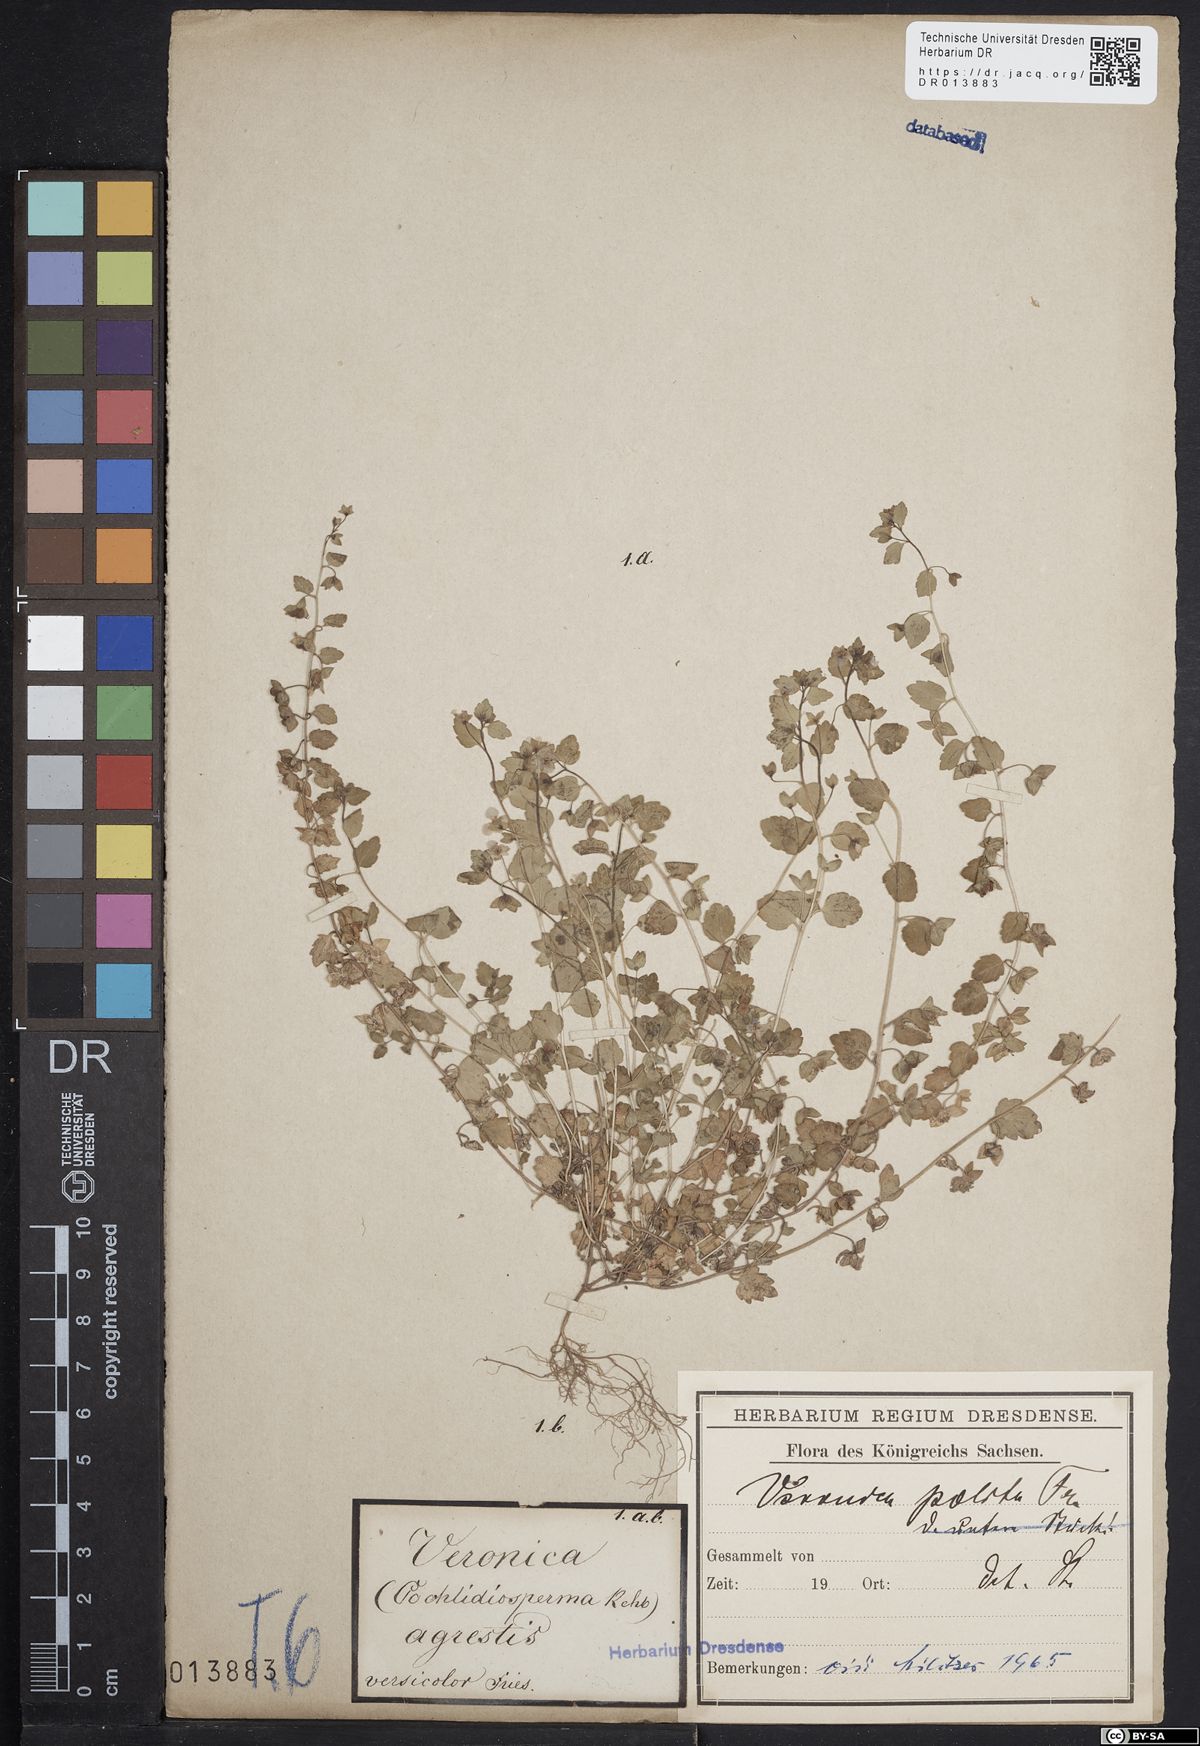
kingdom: Plantae
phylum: Tracheophyta
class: Magnoliopsida
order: Lamiales
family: Plantaginaceae
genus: Veronica
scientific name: Veronica polita
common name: Grey field-speedwell
